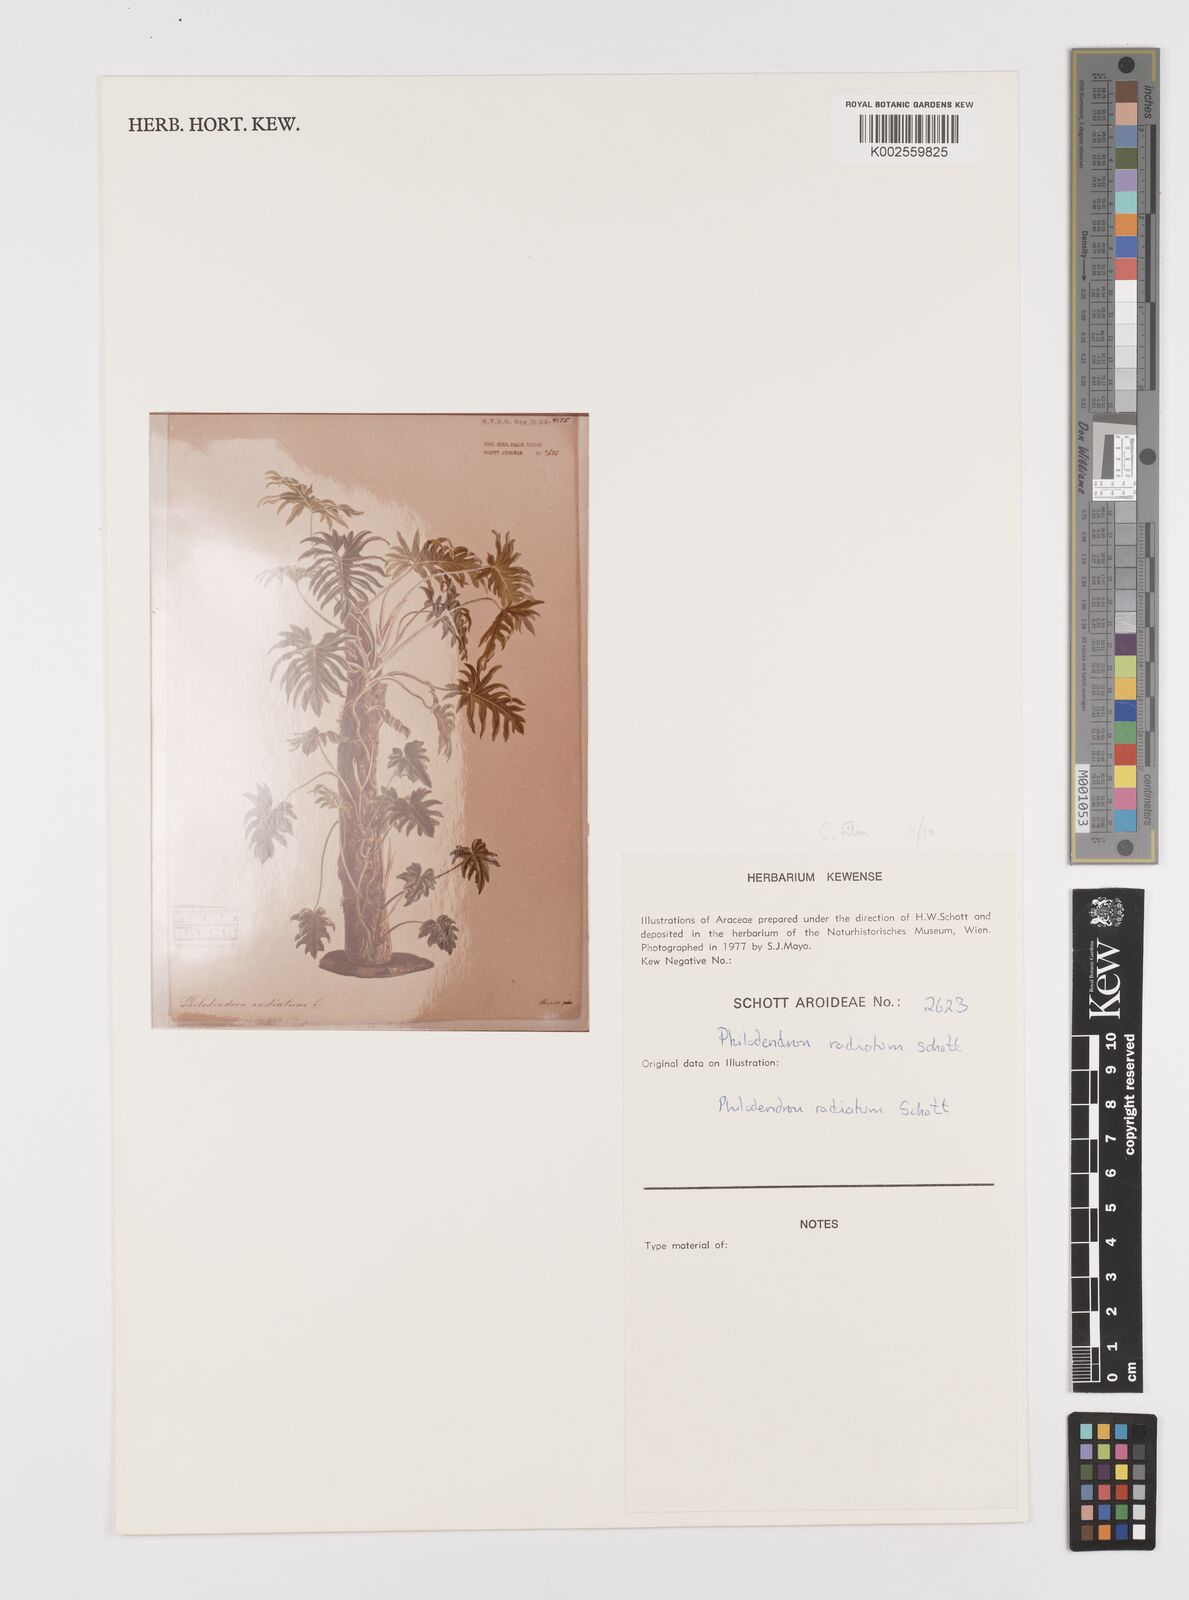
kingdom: Plantae
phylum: Tracheophyta
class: Liliopsida
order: Alismatales
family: Araceae
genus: Philodendron
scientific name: Philodendron radiatum
